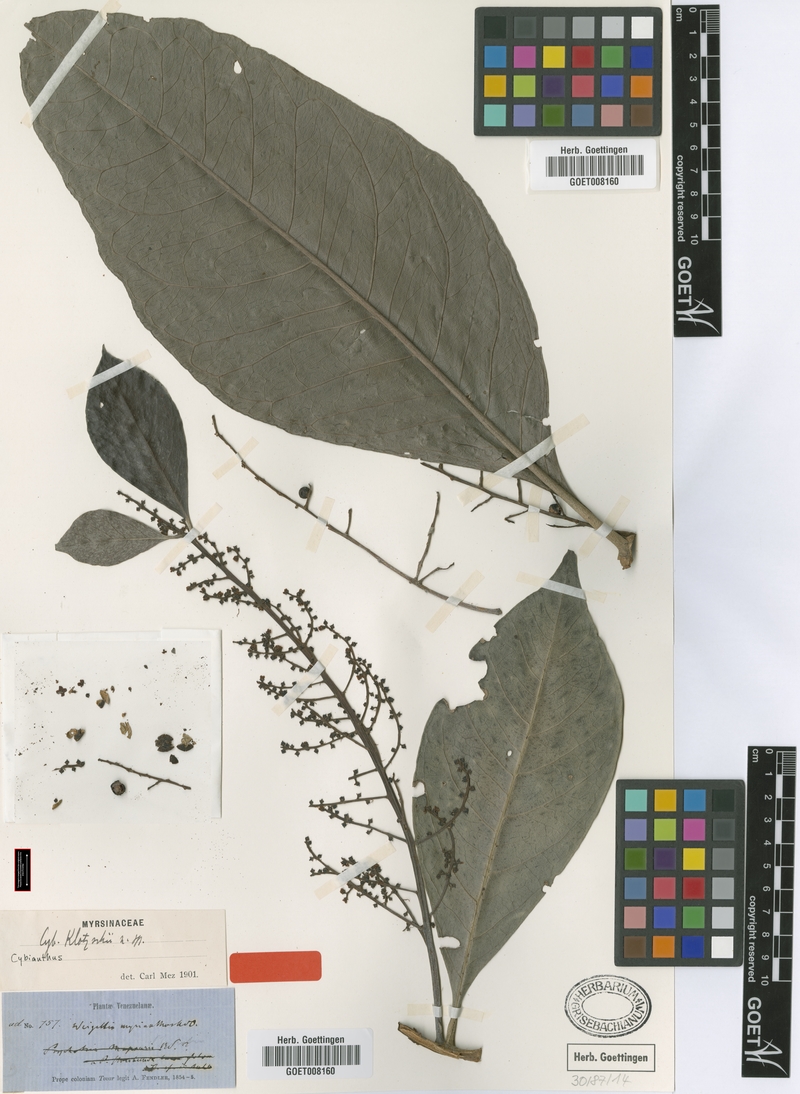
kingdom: Plantae
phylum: Tracheophyta
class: Magnoliopsida
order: Ericales
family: Primulaceae
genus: Cybianthus
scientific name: Cybianthus klotzschii
